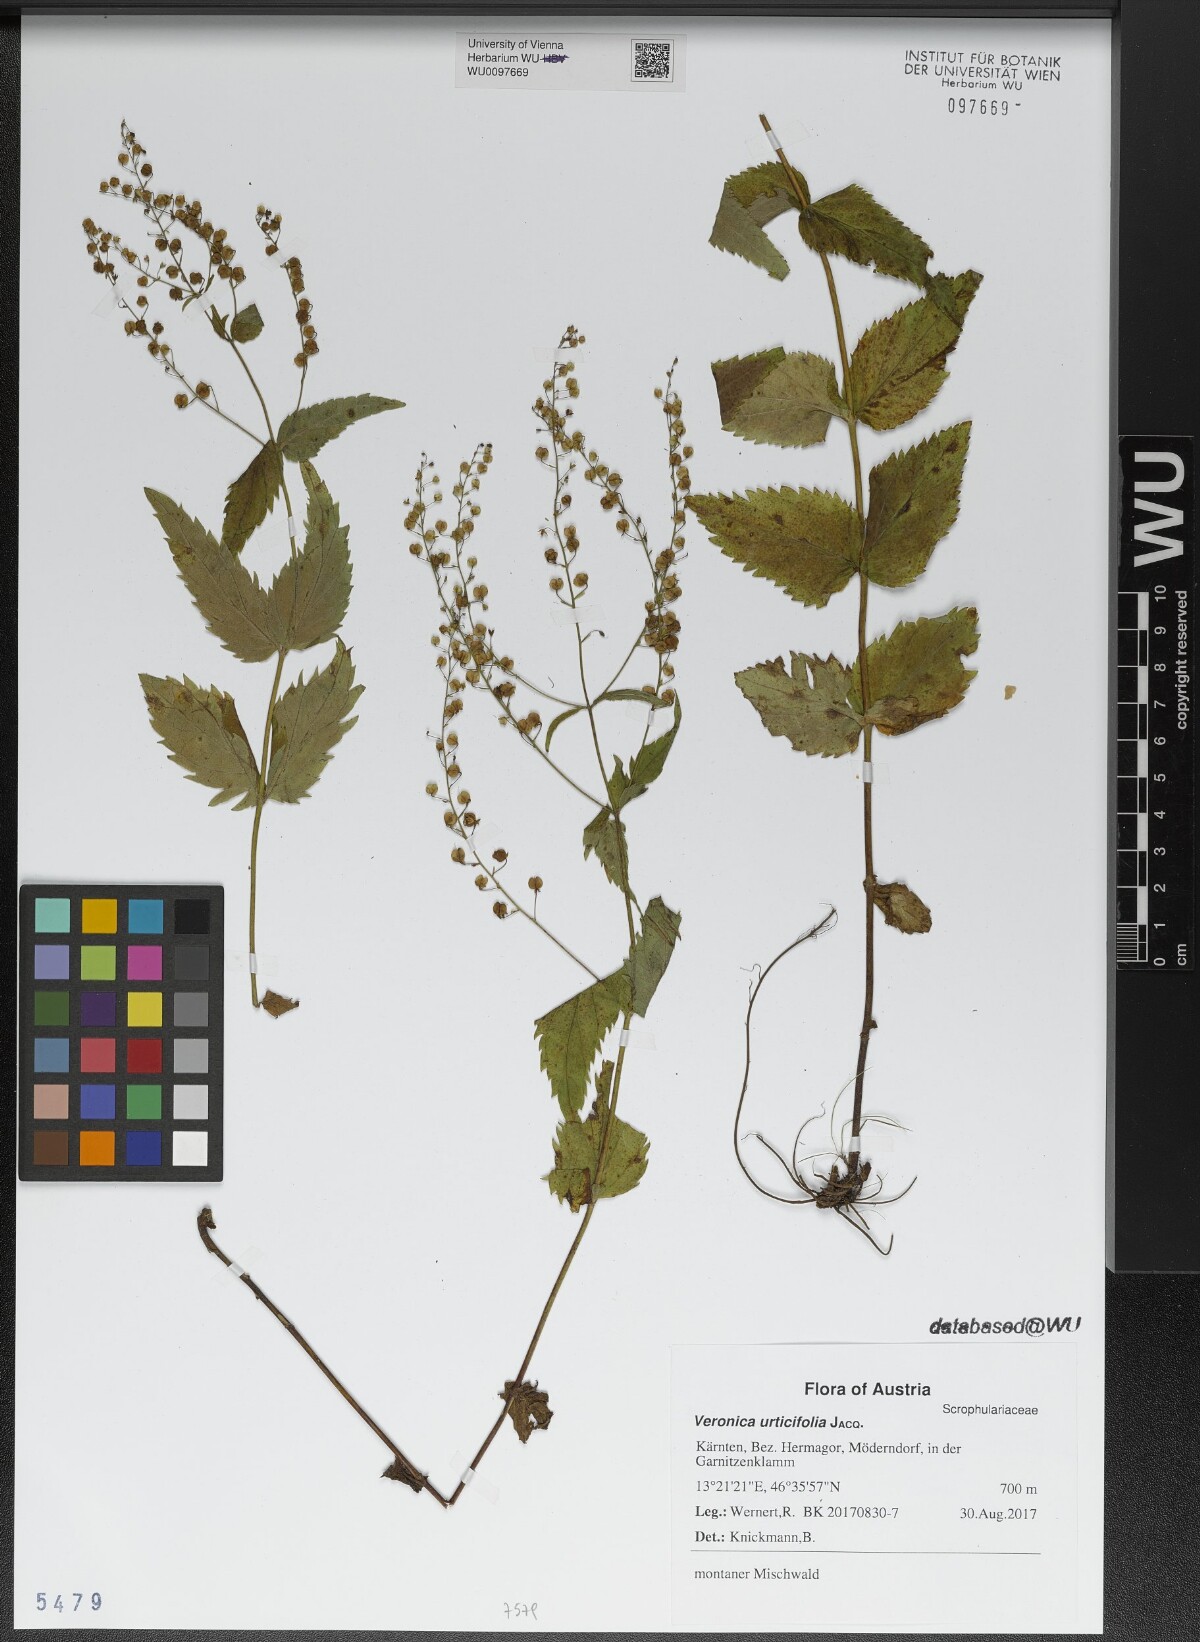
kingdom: Plantae
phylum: Tracheophyta
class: Magnoliopsida
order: Lamiales
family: Plantaginaceae
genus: Veronica
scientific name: Veronica urticifolia
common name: Nettle-leaf speedwell
